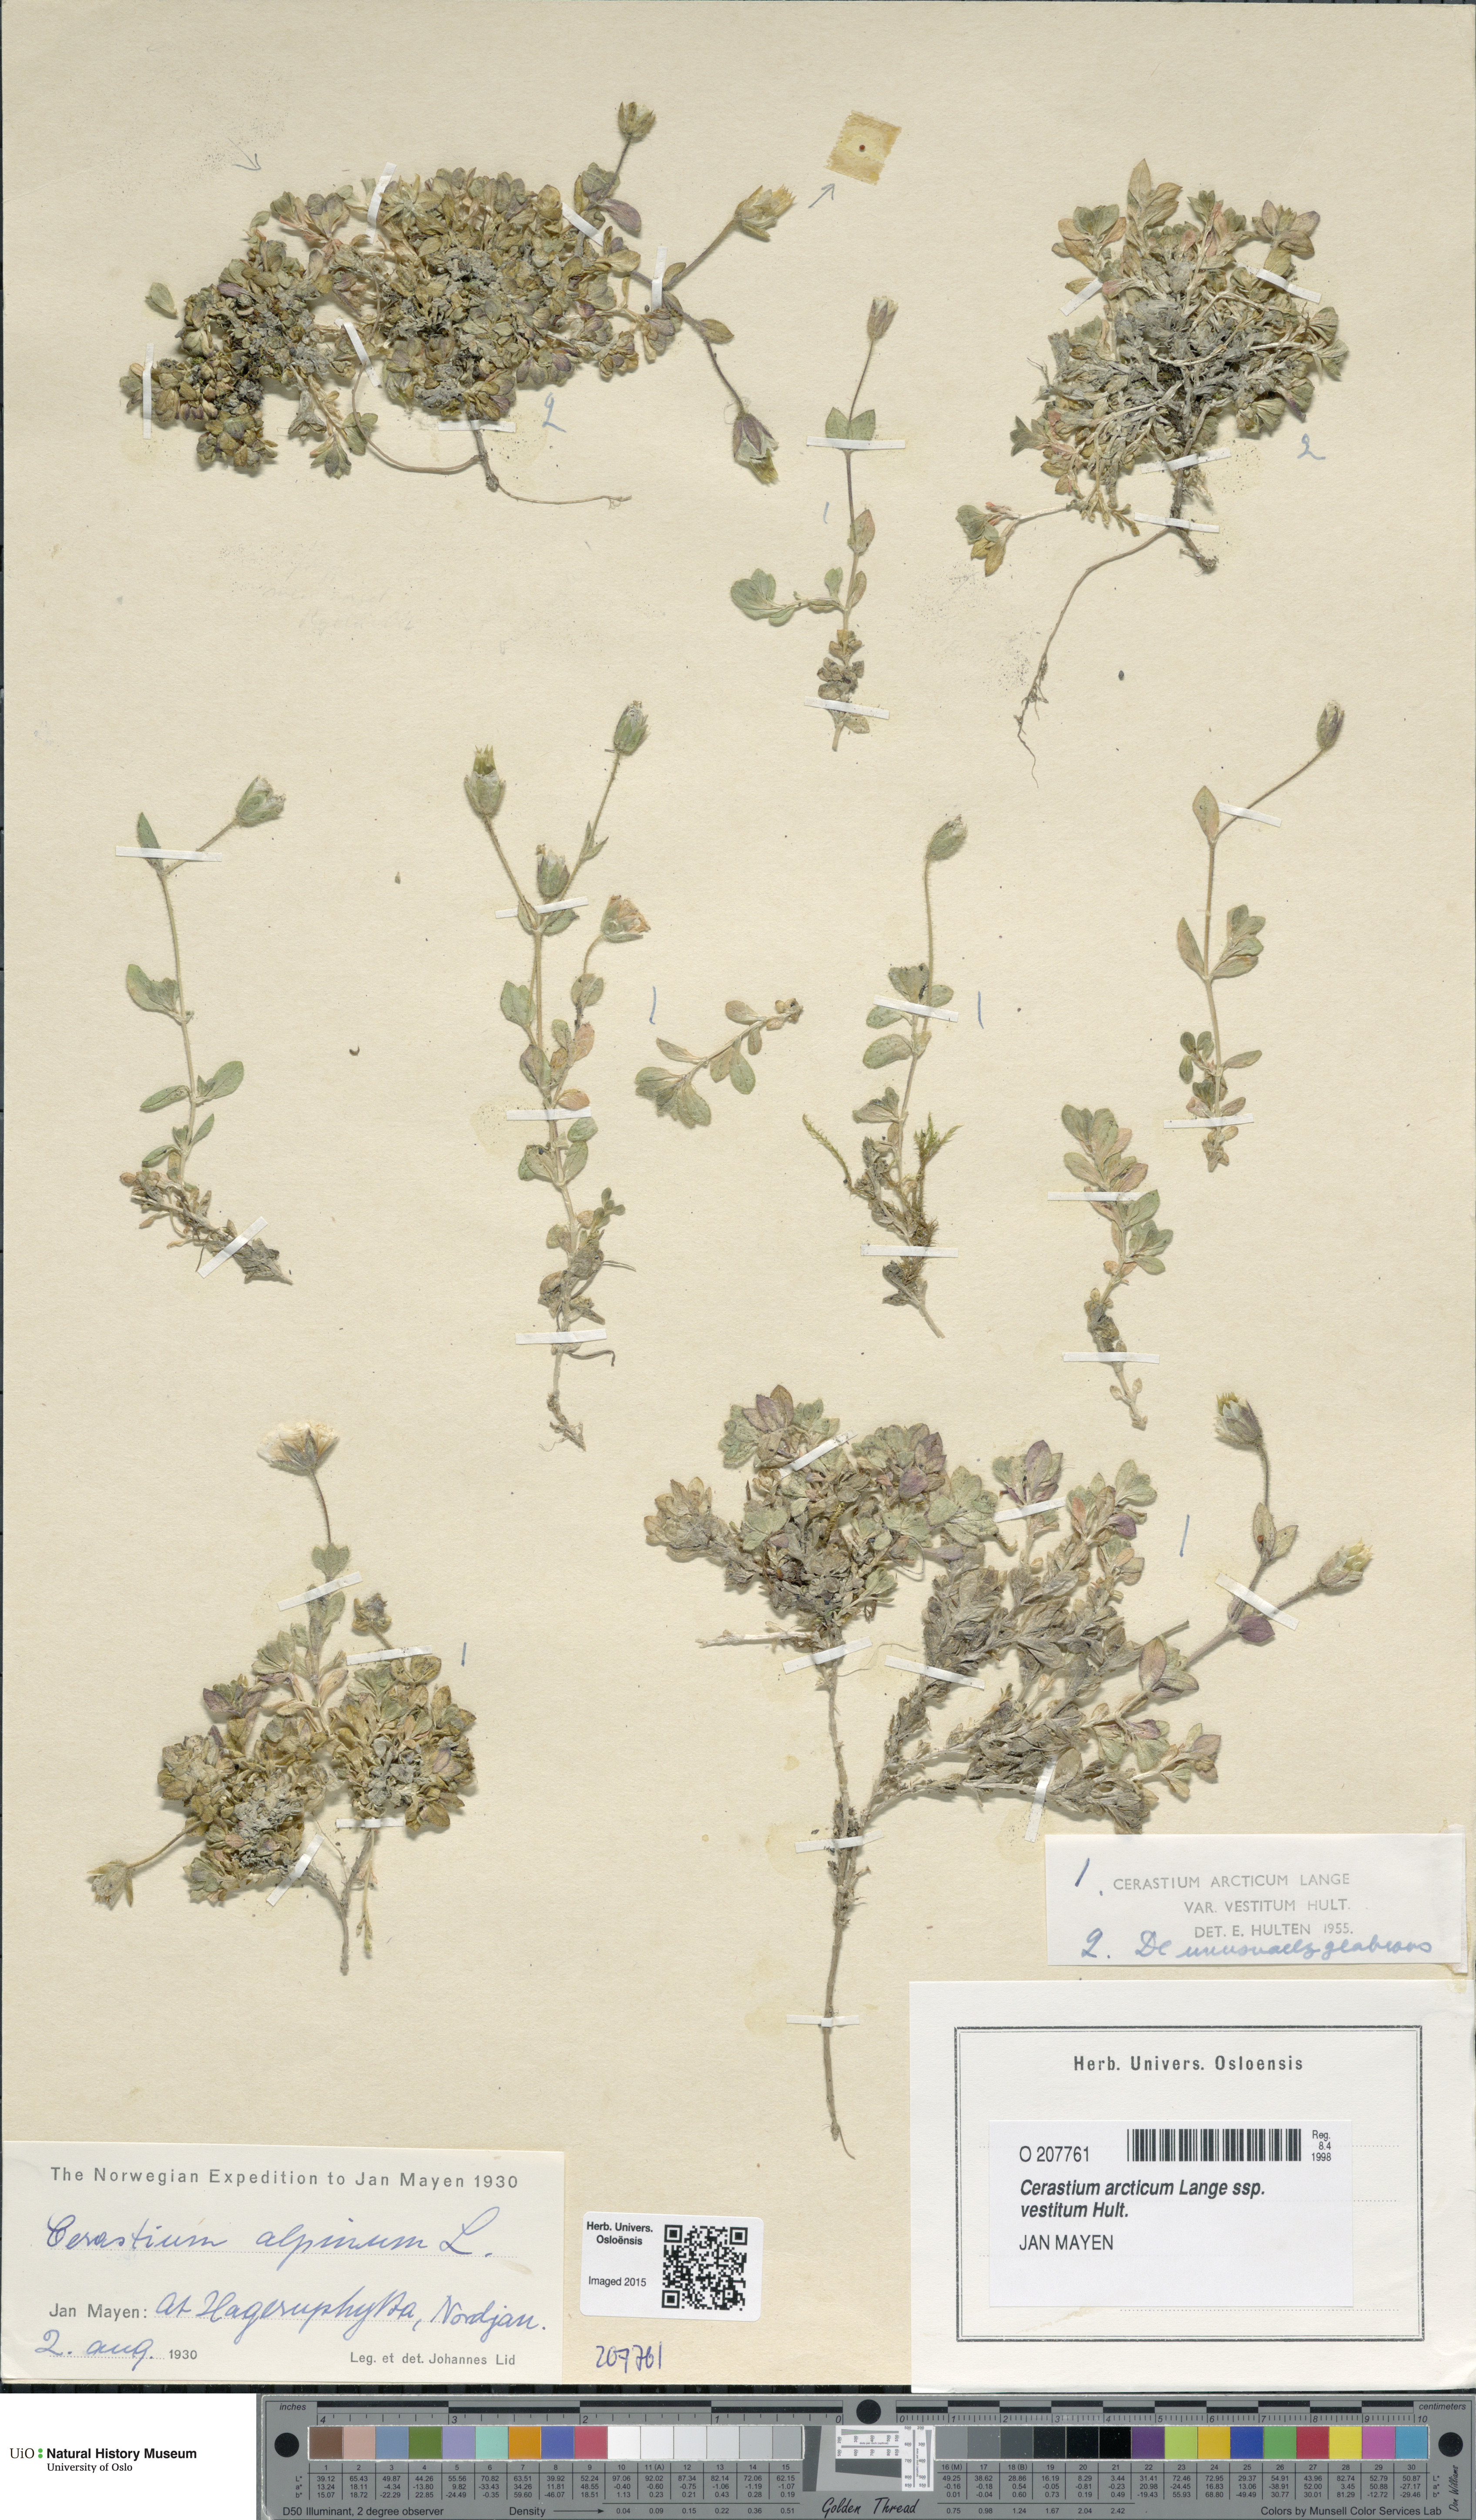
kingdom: Plantae
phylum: Tracheophyta
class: Magnoliopsida
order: Caryophyllales
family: Caryophyllaceae
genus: Cerastium
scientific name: Cerastium arcticum
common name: Arctic mouse-ear
